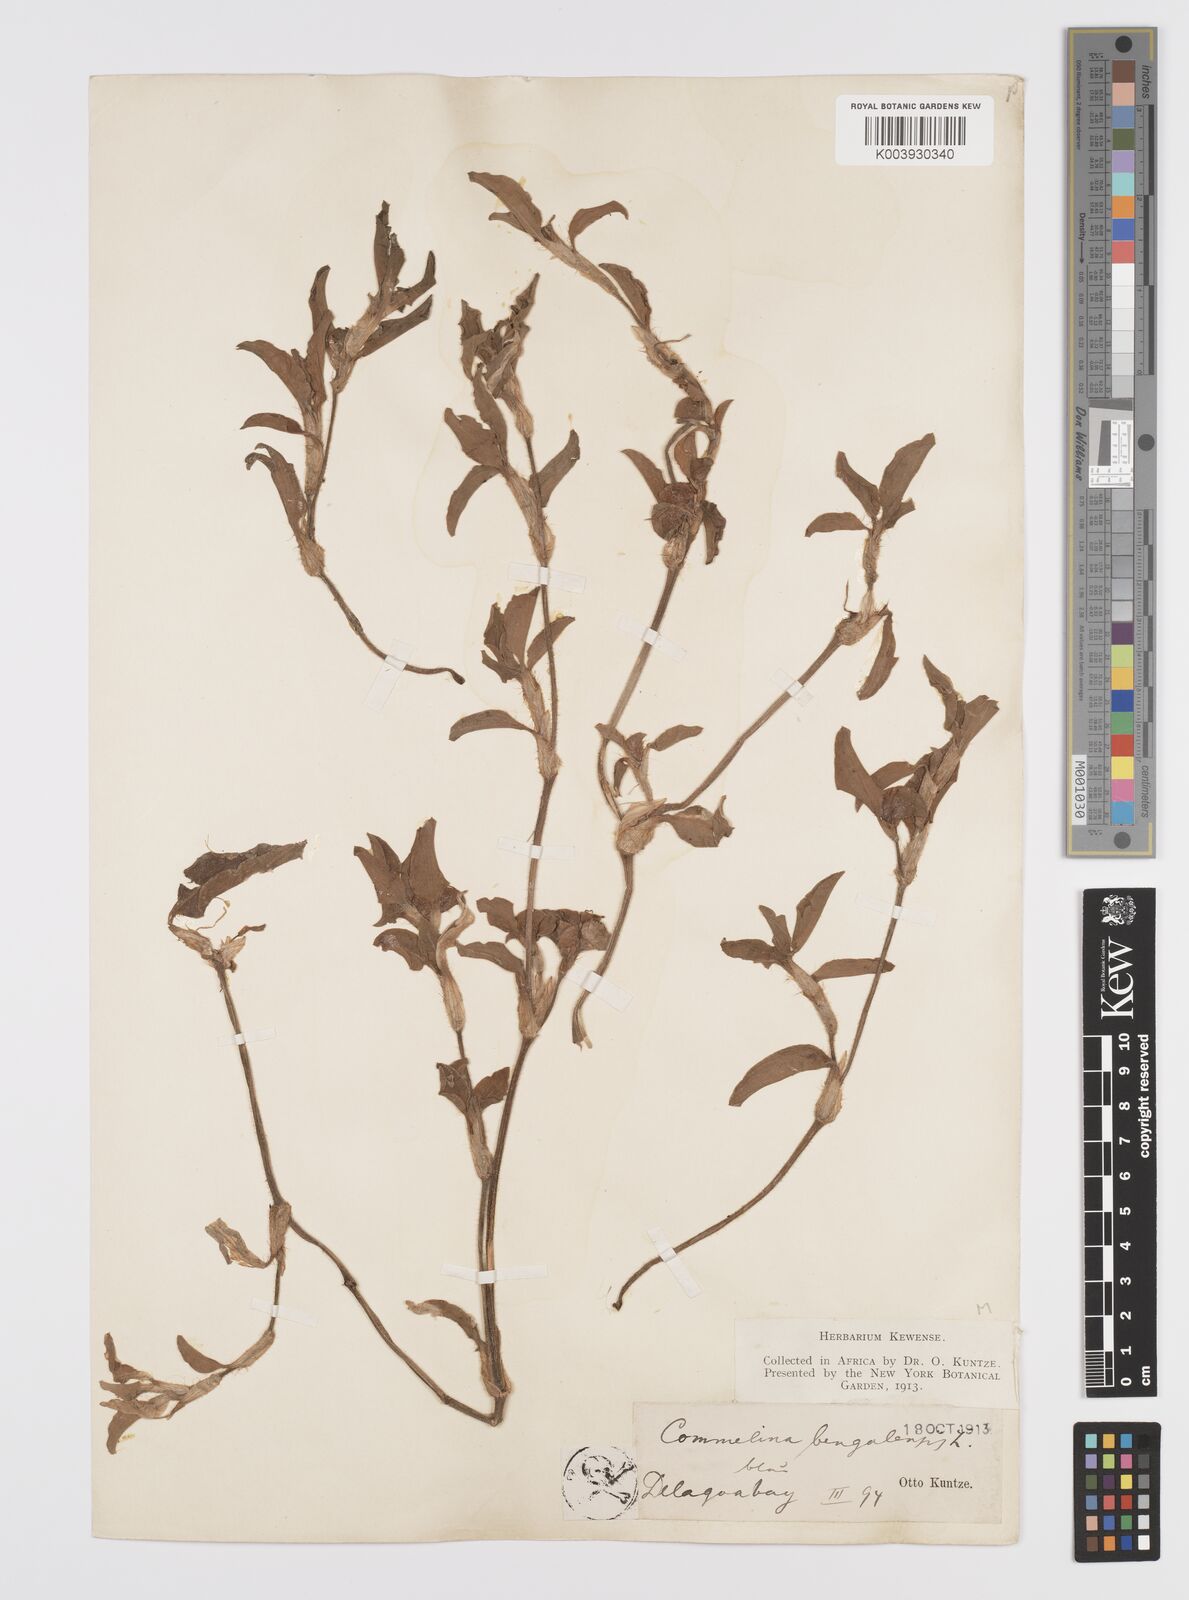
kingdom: Plantae
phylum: Tracheophyta
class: Liliopsida
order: Commelinales
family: Commelinaceae
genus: Commelina
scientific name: Commelina benghalensis
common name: Jio
